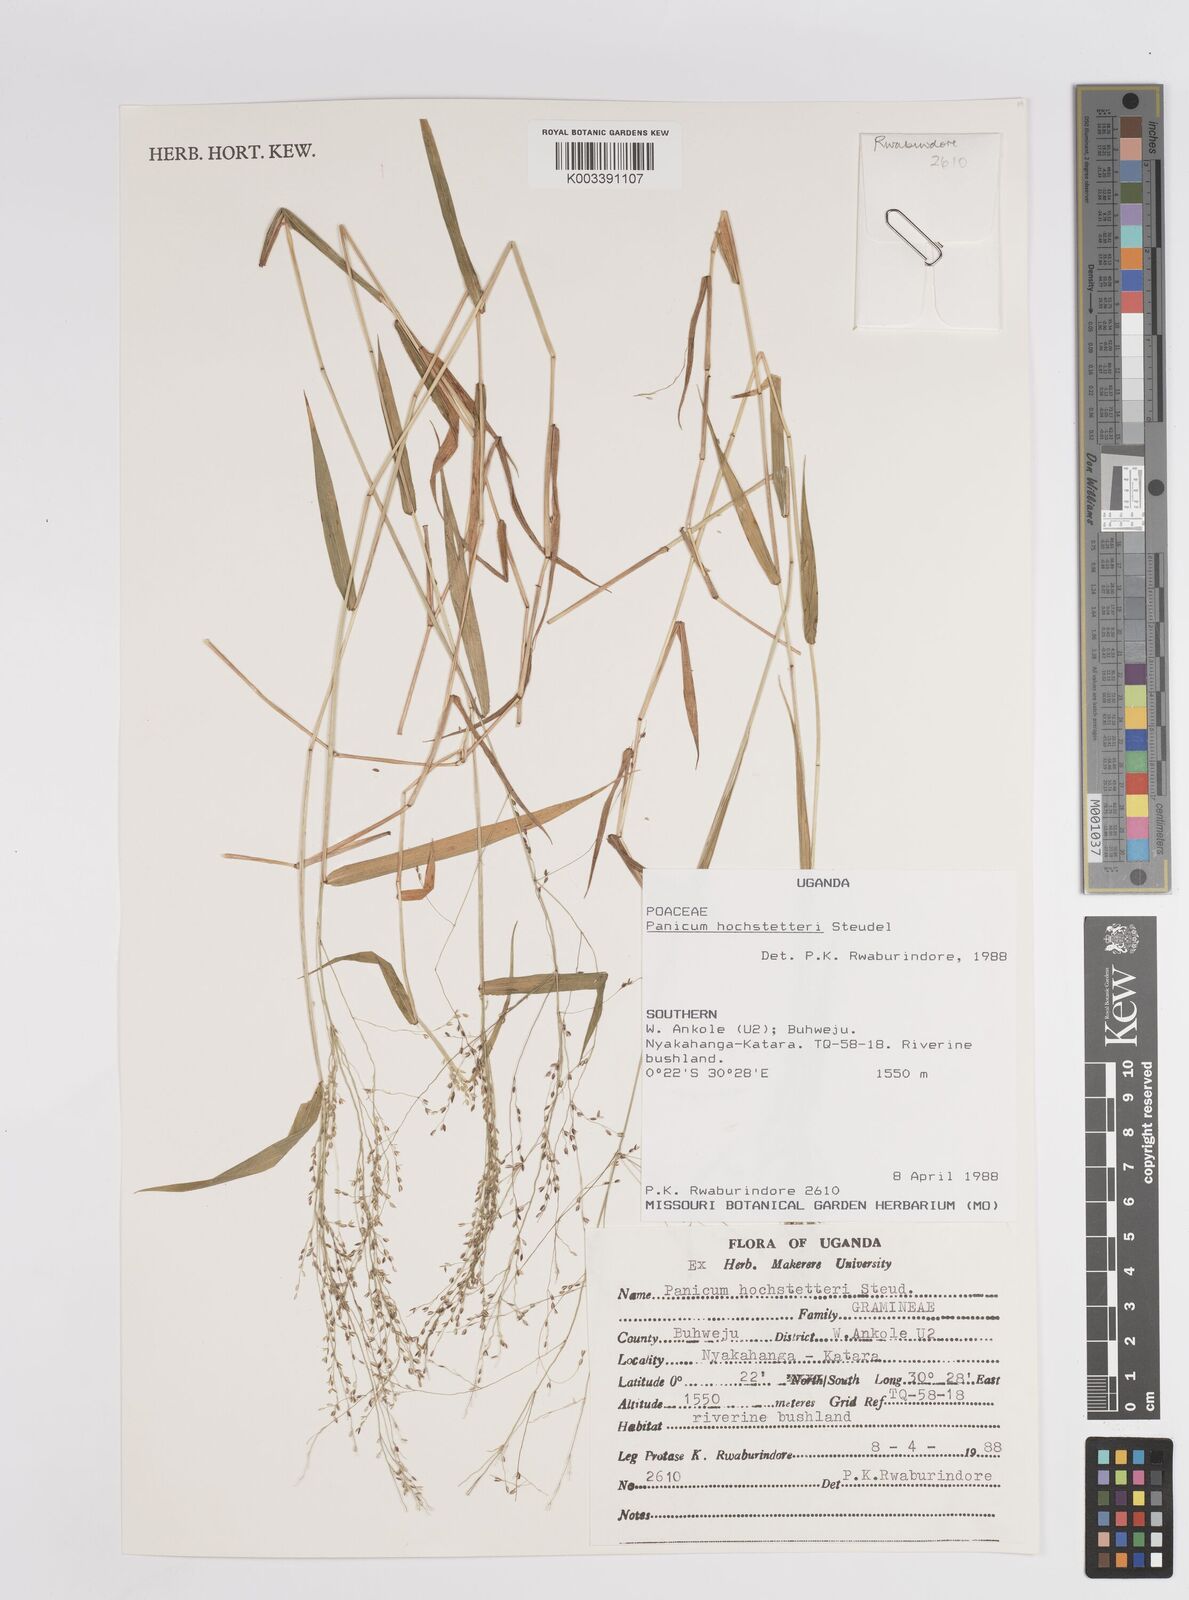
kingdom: Plantae
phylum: Tracheophyta
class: Liliopsida
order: Poales
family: Poaceae
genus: Panicum
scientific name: Panicum chionachne
